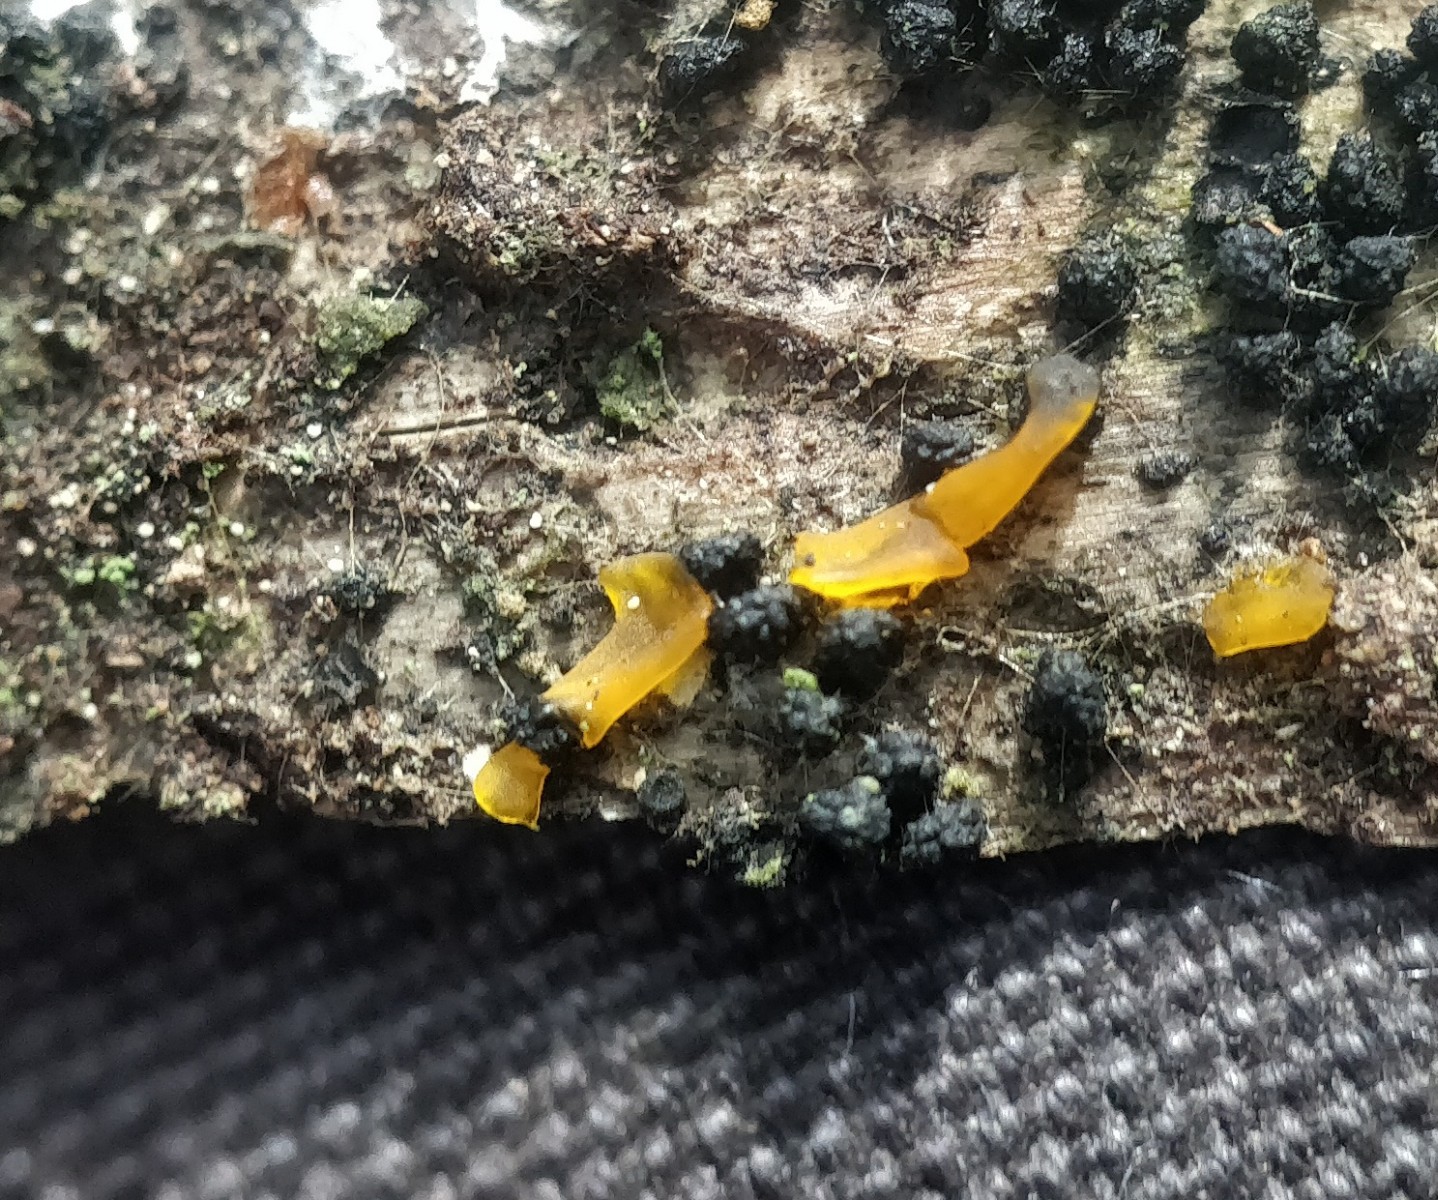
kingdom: Fungi
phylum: Basidiomycota
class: Dacrymycetes
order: Dacrymycetales
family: Dacrymycetaceae
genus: Dacrymyces
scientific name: Dacrymyces
